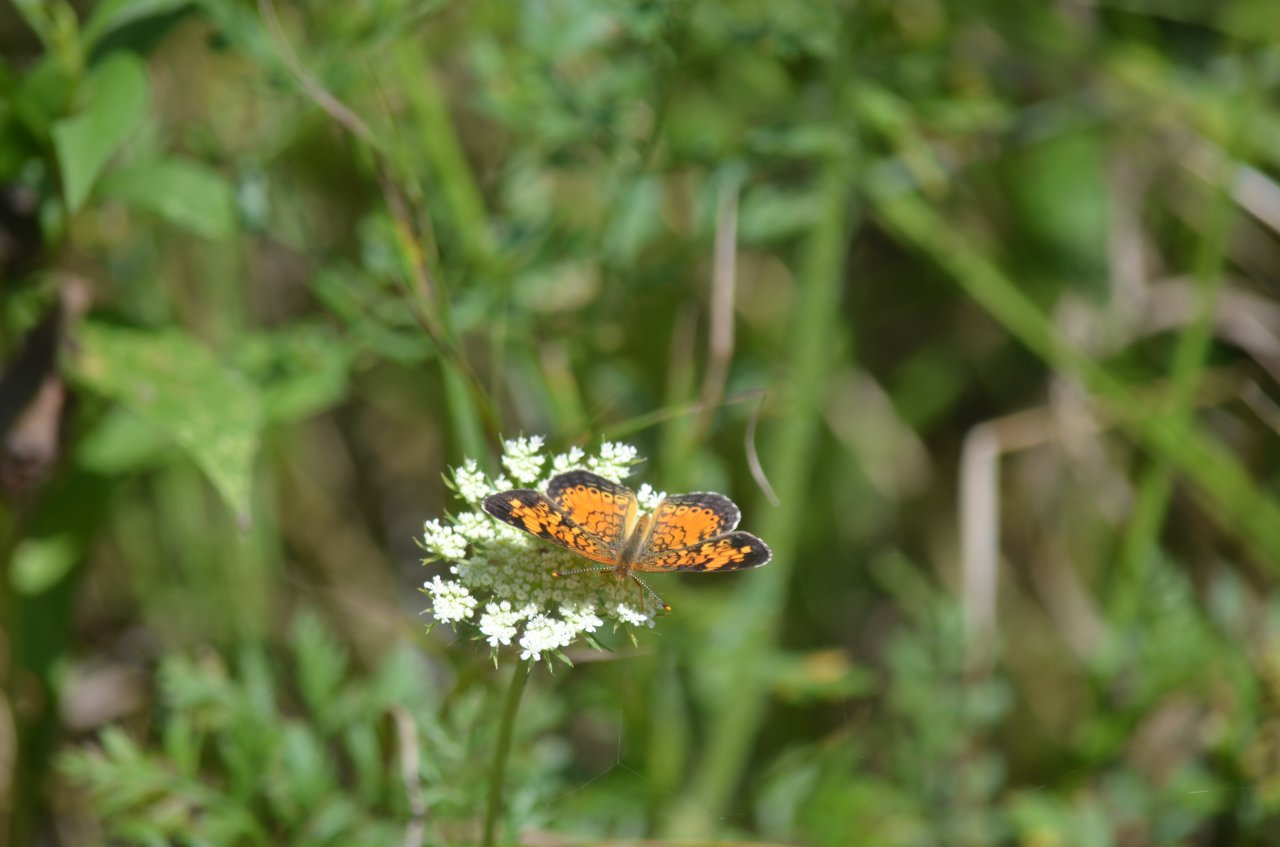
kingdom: Animalia
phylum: Arthropoda
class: Insecta
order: Lepidoptera
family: Nymphalidae
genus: Phyciodes
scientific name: Phyciodes tharos
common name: Northern Crescent
